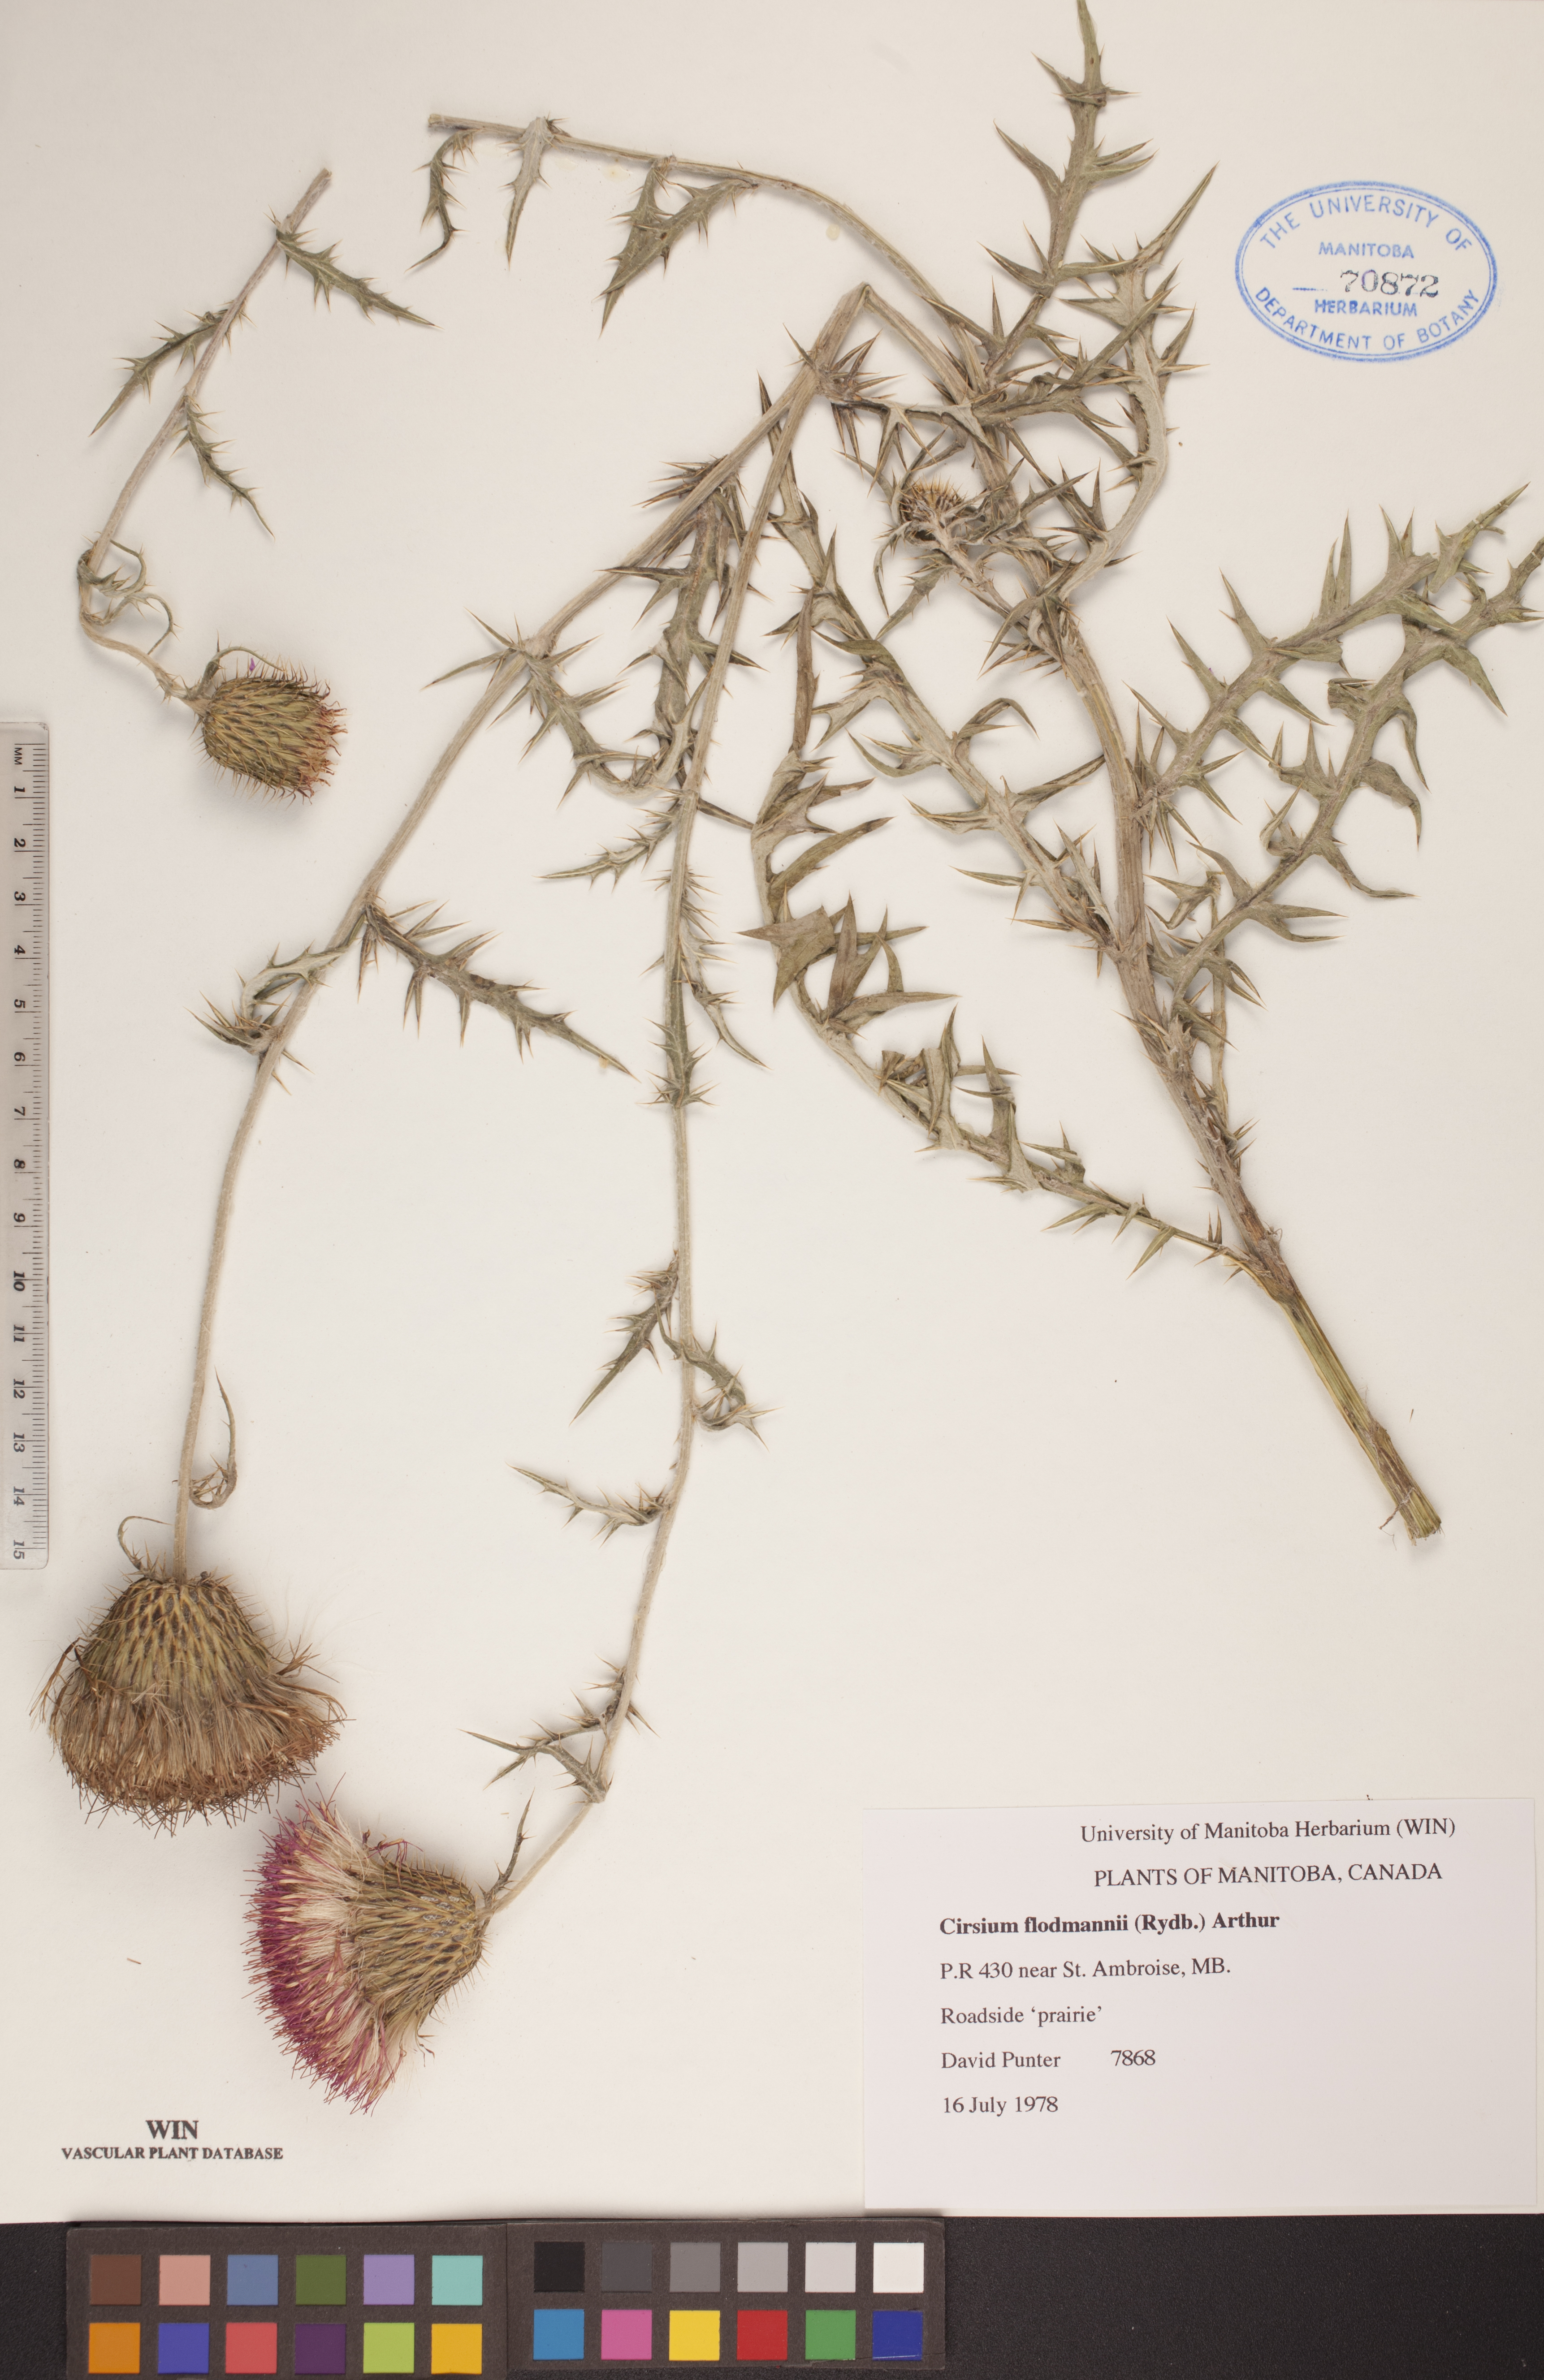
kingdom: Plantae
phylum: Tracheophyta
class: Magnoliopsida
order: Asterales
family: Asteraceae
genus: Cirsium
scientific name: Cirsium flodmanii
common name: Flodman's thistle
